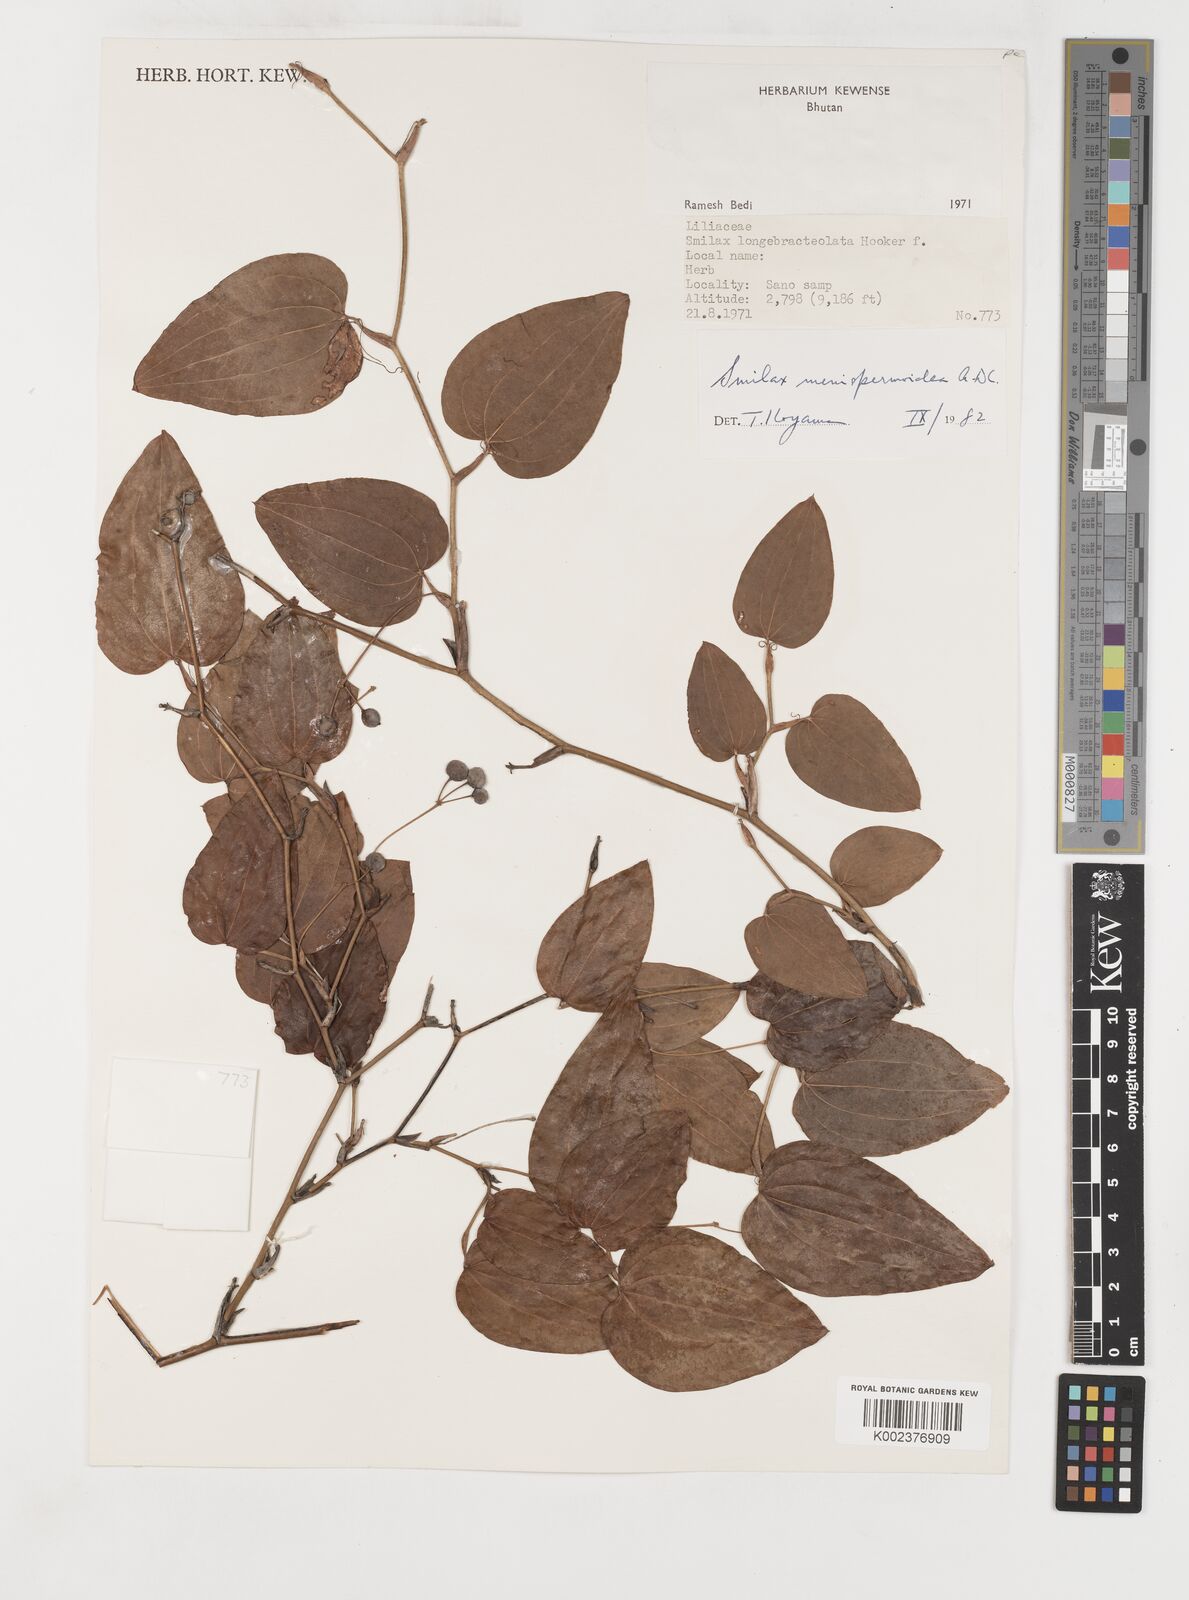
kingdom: Plantae
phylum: Tracheophyta
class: Liliopsida
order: Liliales
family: Smilacaceae
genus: Smilax
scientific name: Smilax menispermoidea
